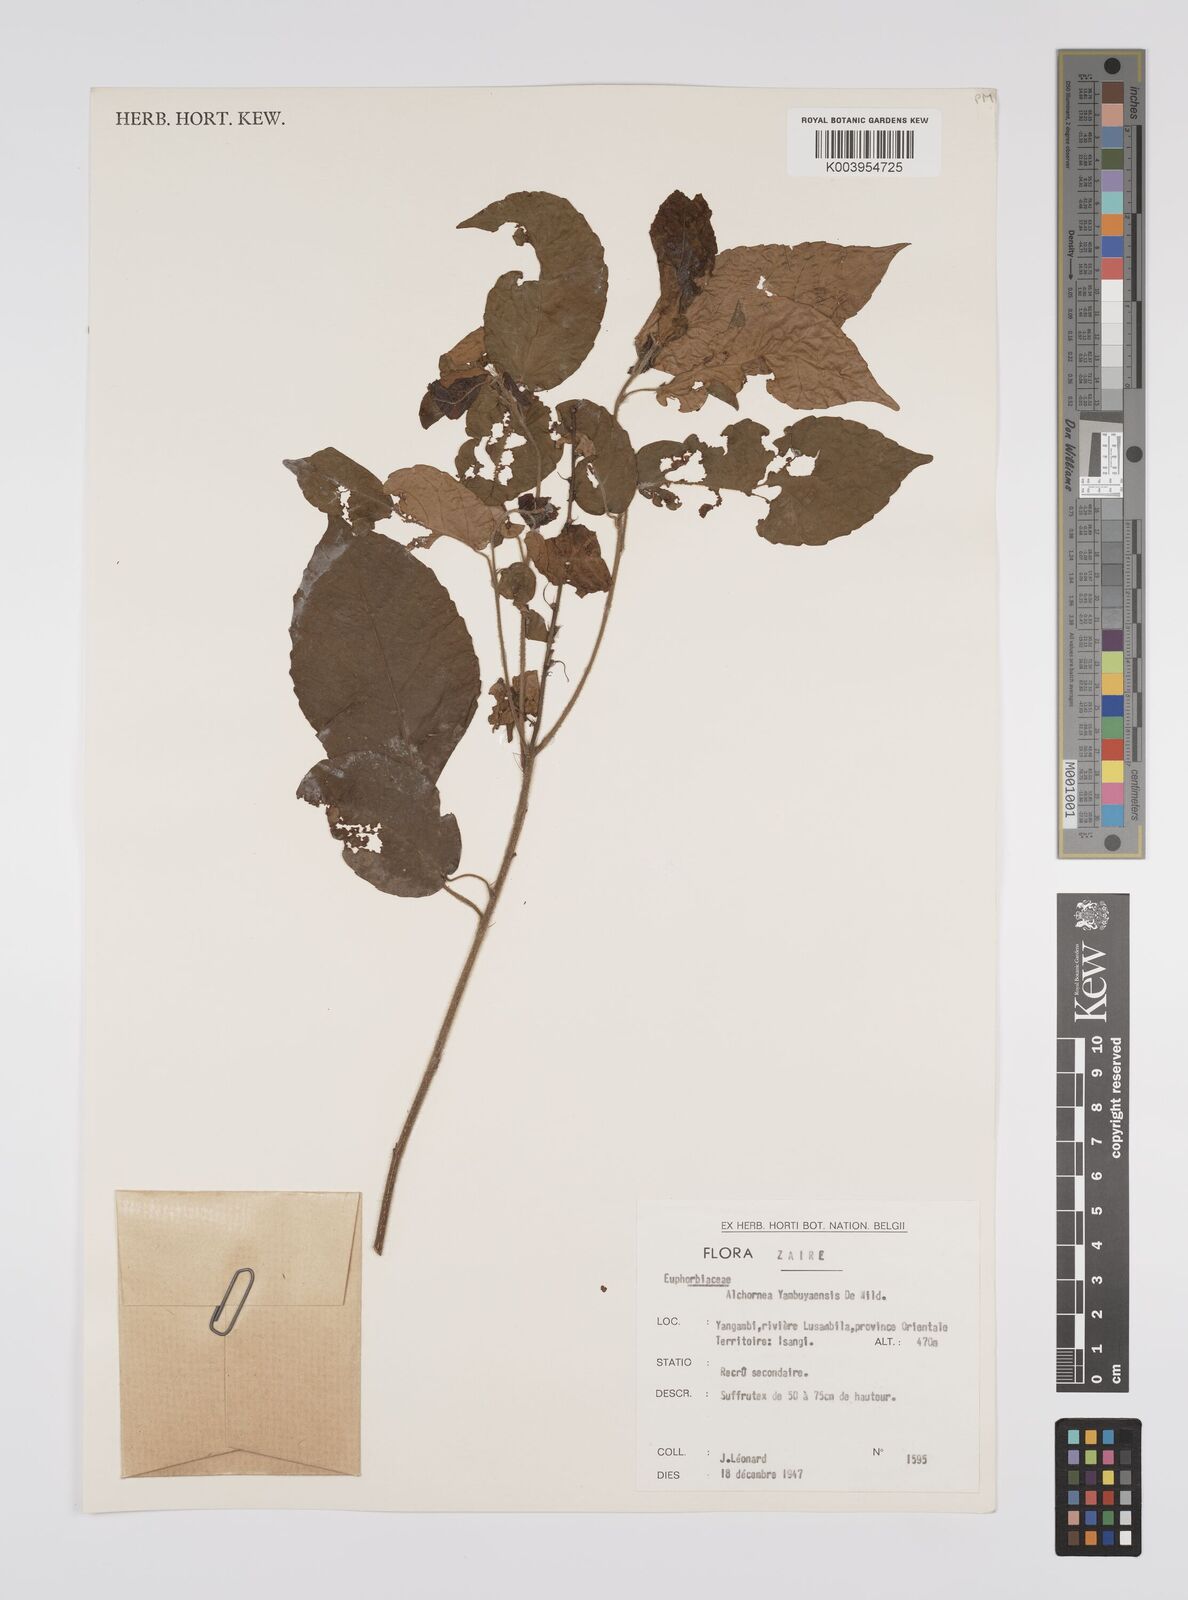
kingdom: Plantae
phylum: Tracheophyta
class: Magnoliopsida
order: Malpighiales
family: Euphorbiaceae
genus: Alchornea
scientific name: Alchornea yambuyaensis
